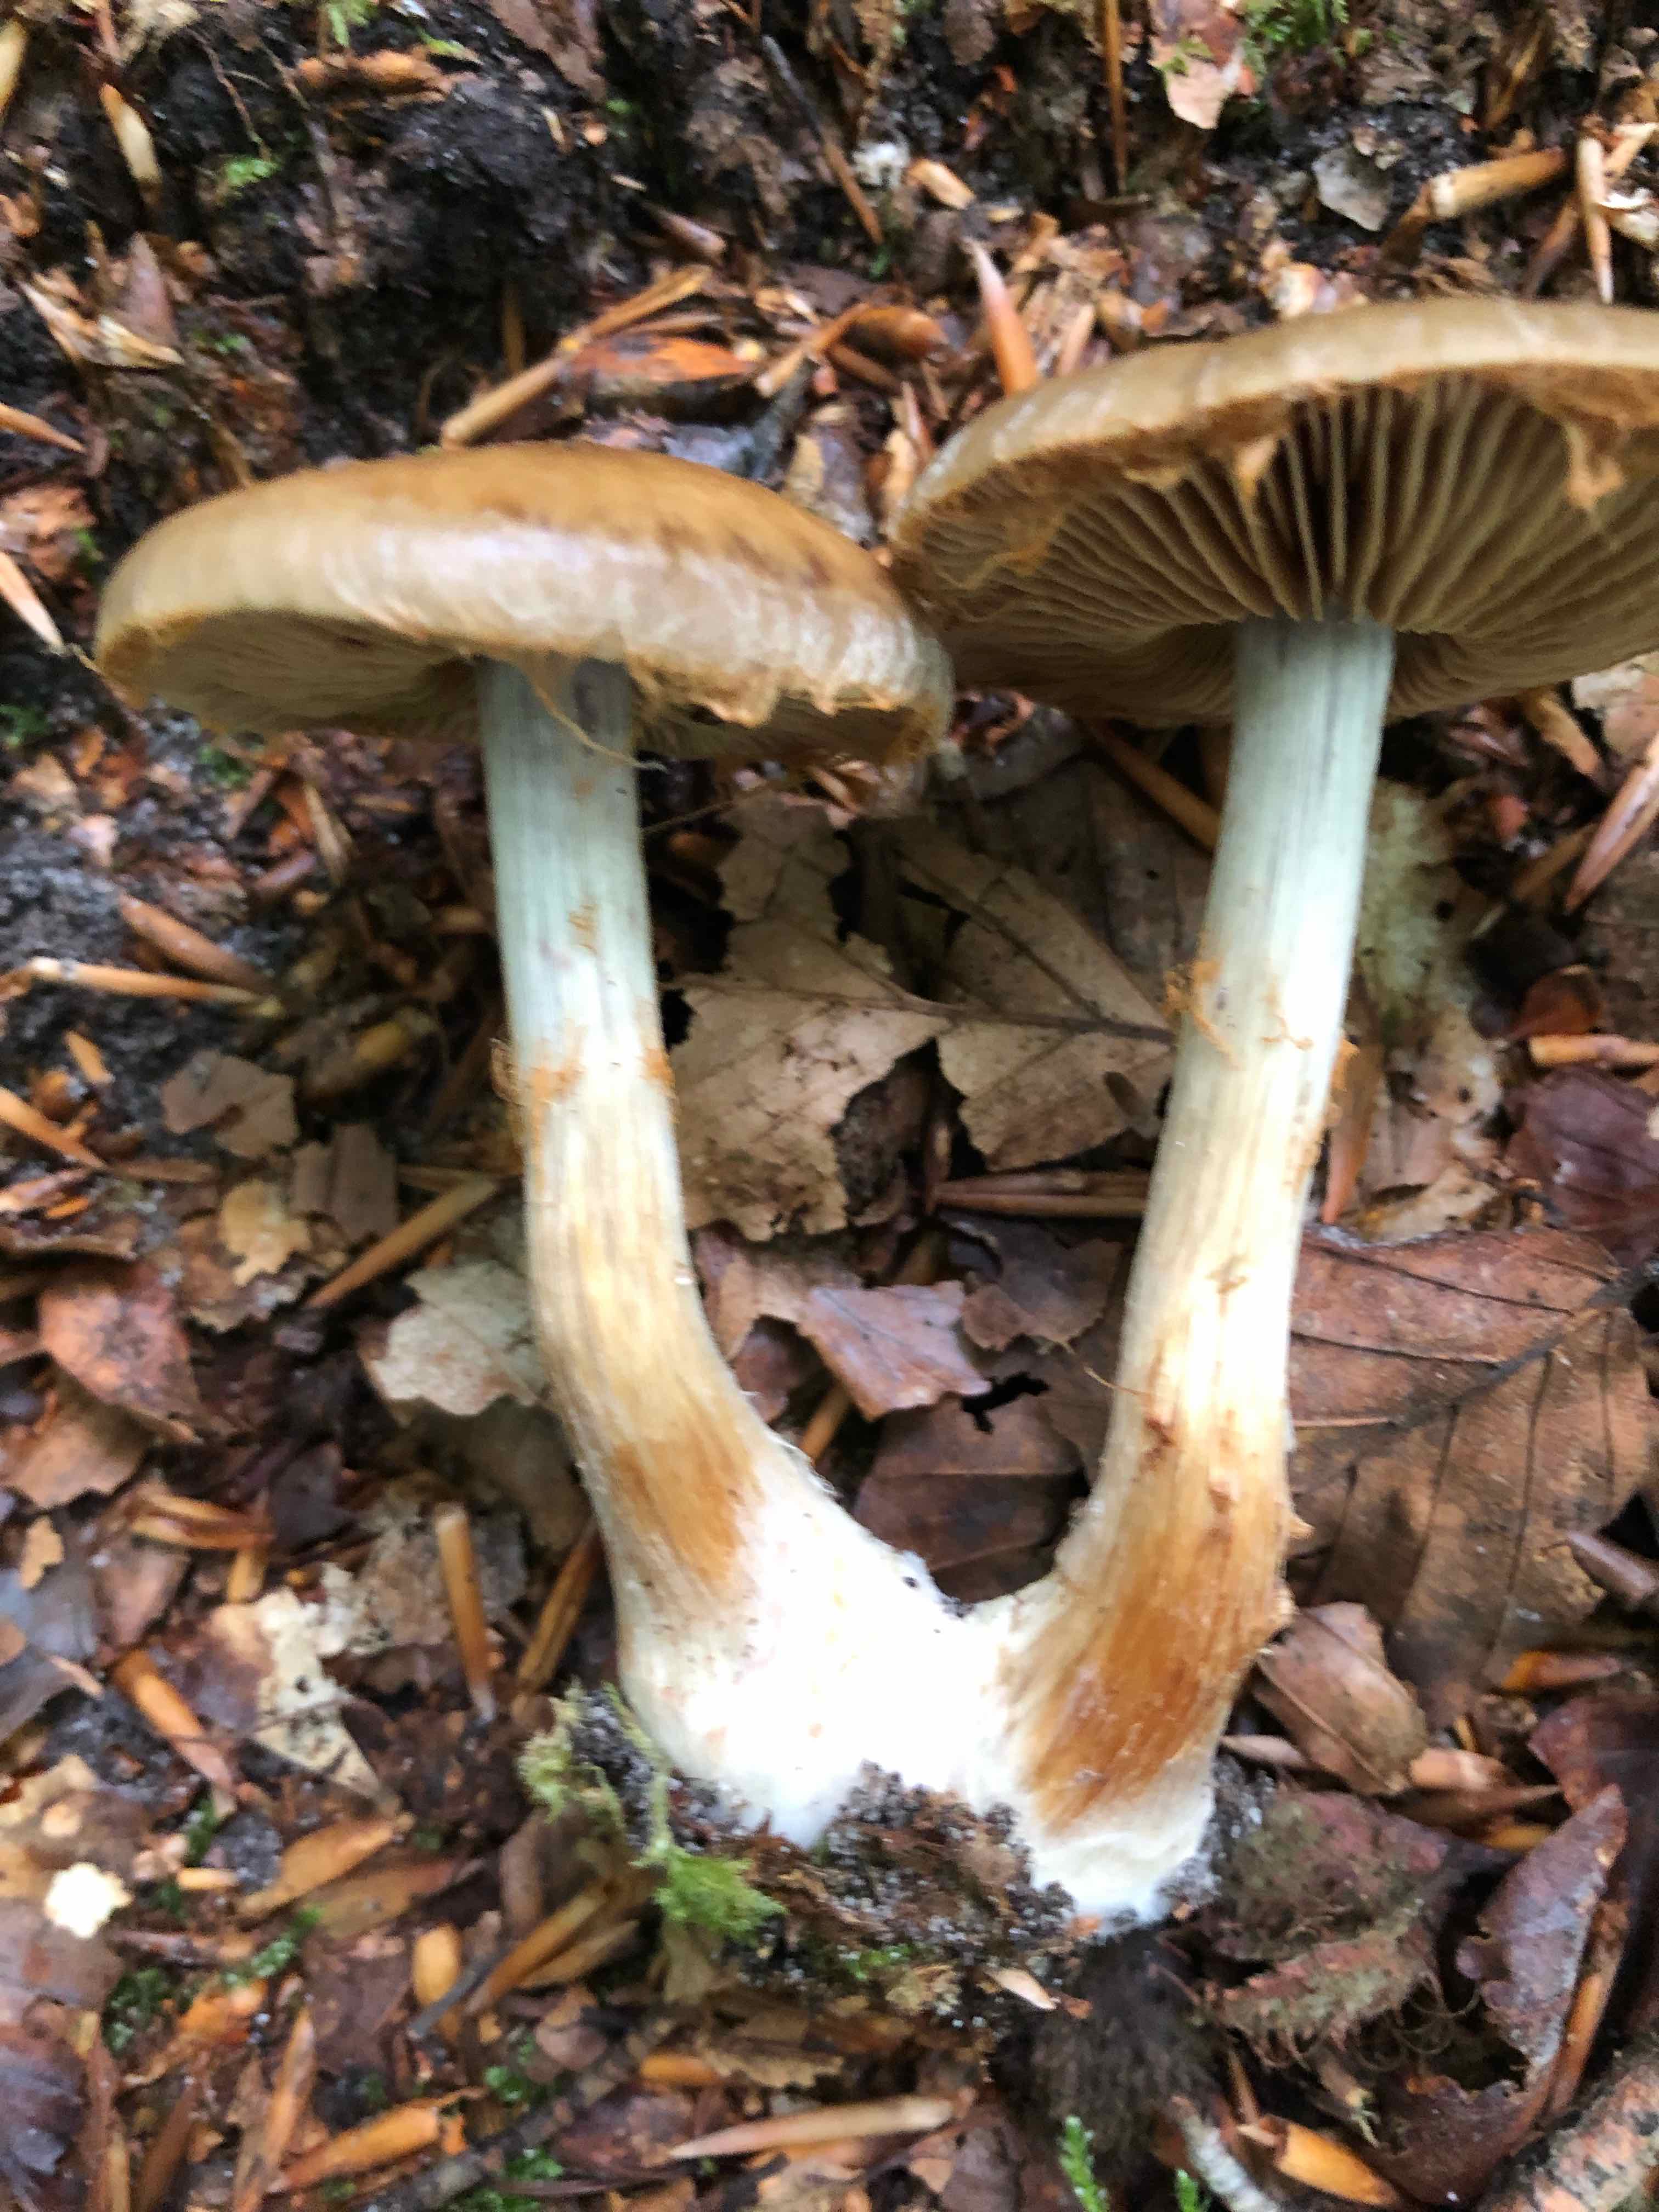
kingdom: Fungi
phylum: Basidiomycota
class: Agaricomycetes
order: Agaricales
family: Cortinariaceae
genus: Cortinarius
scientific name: Cortinarius
